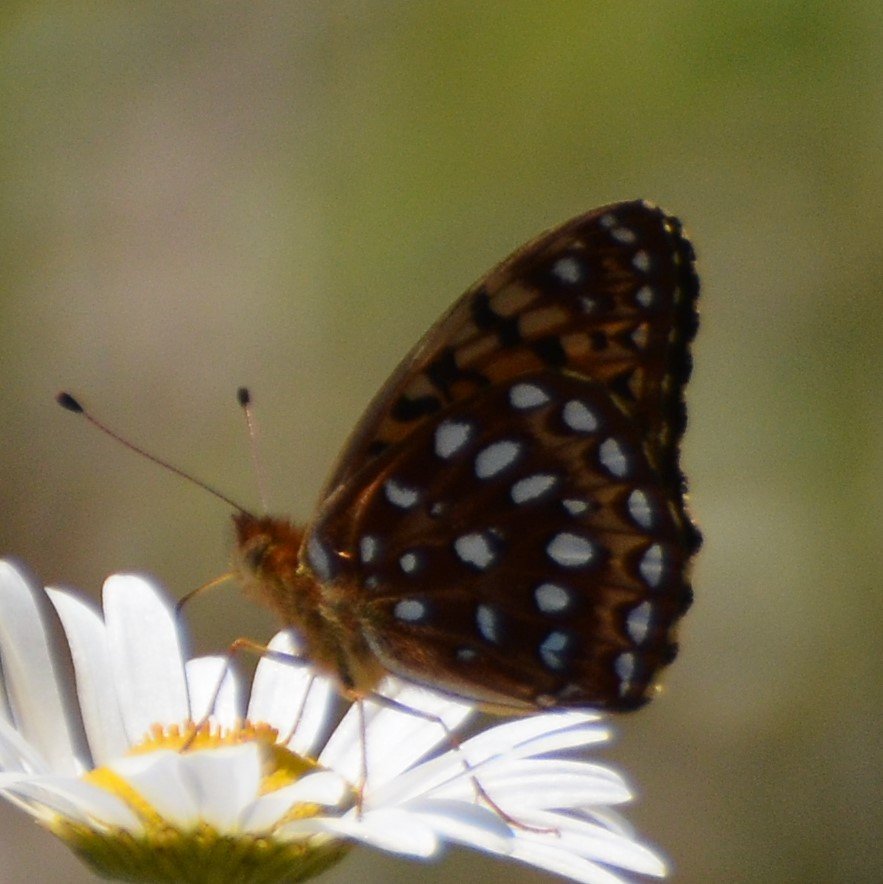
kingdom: Animalia
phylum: Arthropoda
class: Insecta
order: Lepidoptera
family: Nymphalidae
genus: Speyeria
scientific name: Speyeria aphrodite
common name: Aphrodite Fritillary
